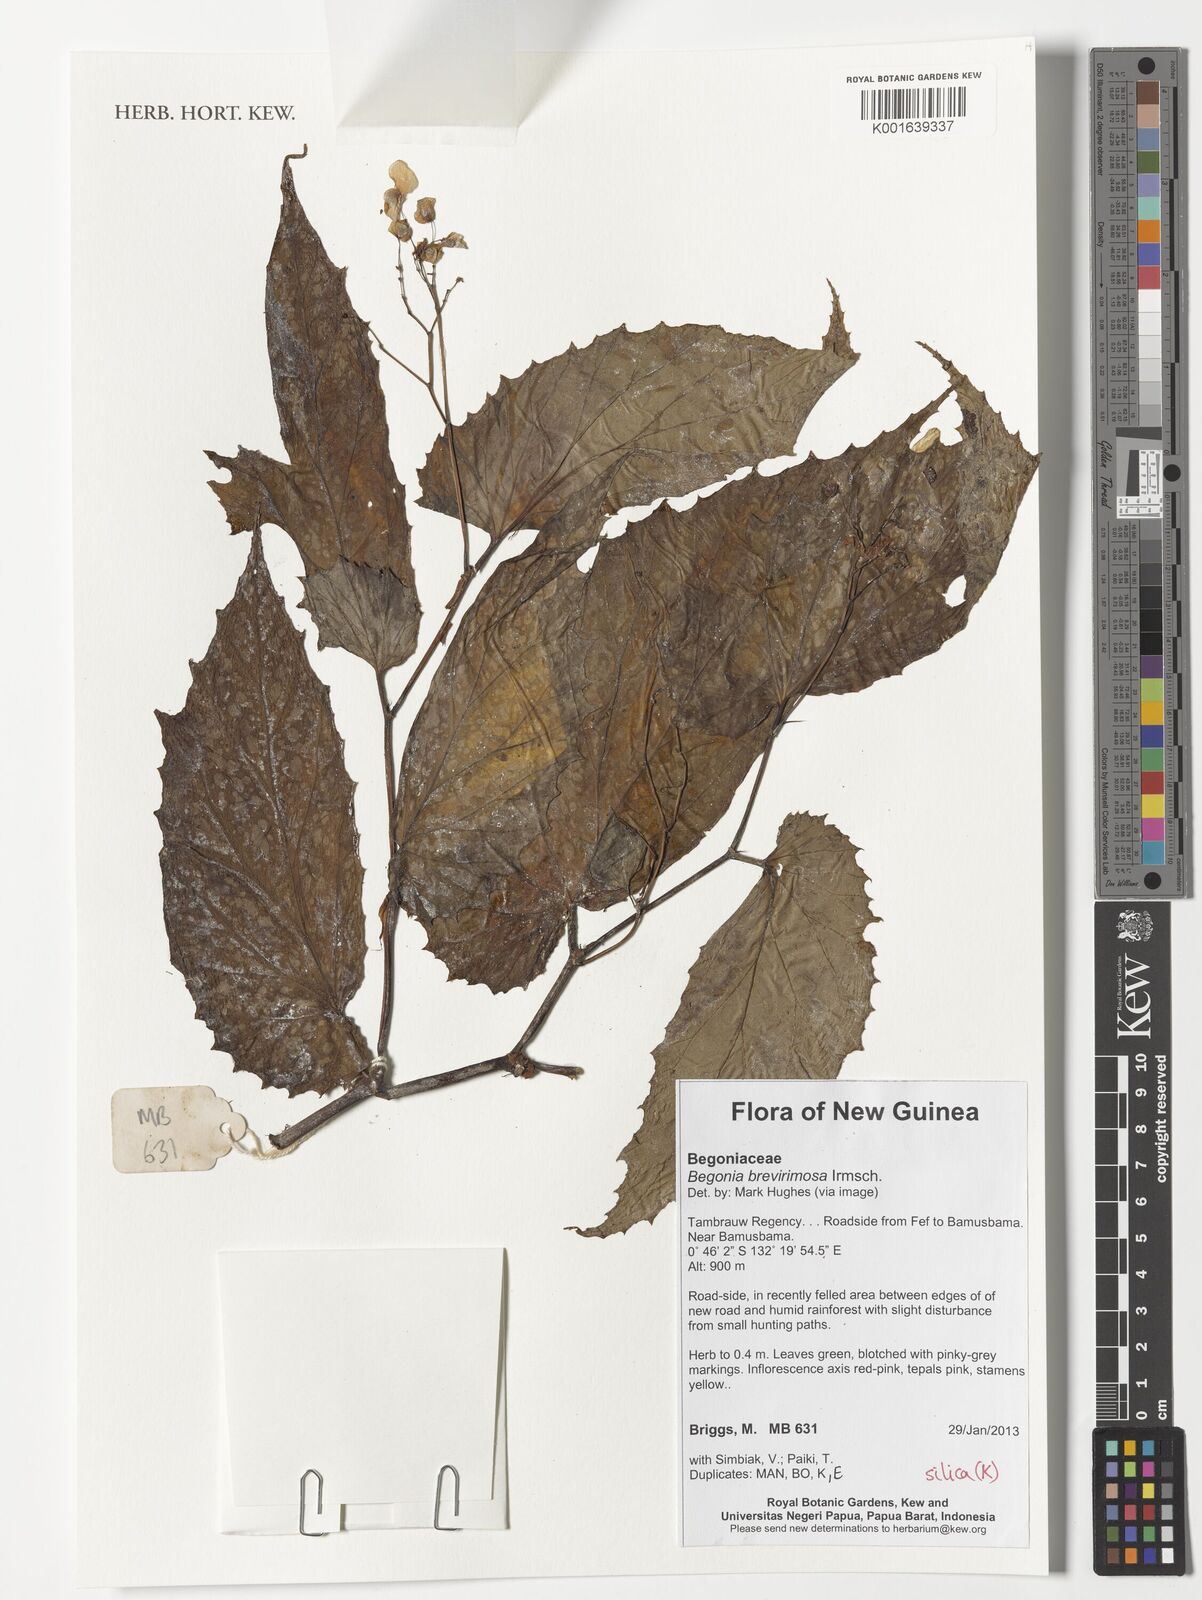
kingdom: Plantae
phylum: Tracheophyta
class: Magnoliopsida
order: Cucurbitales
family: Begoniaceae
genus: Begonia
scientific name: Begonia brevirimosa
